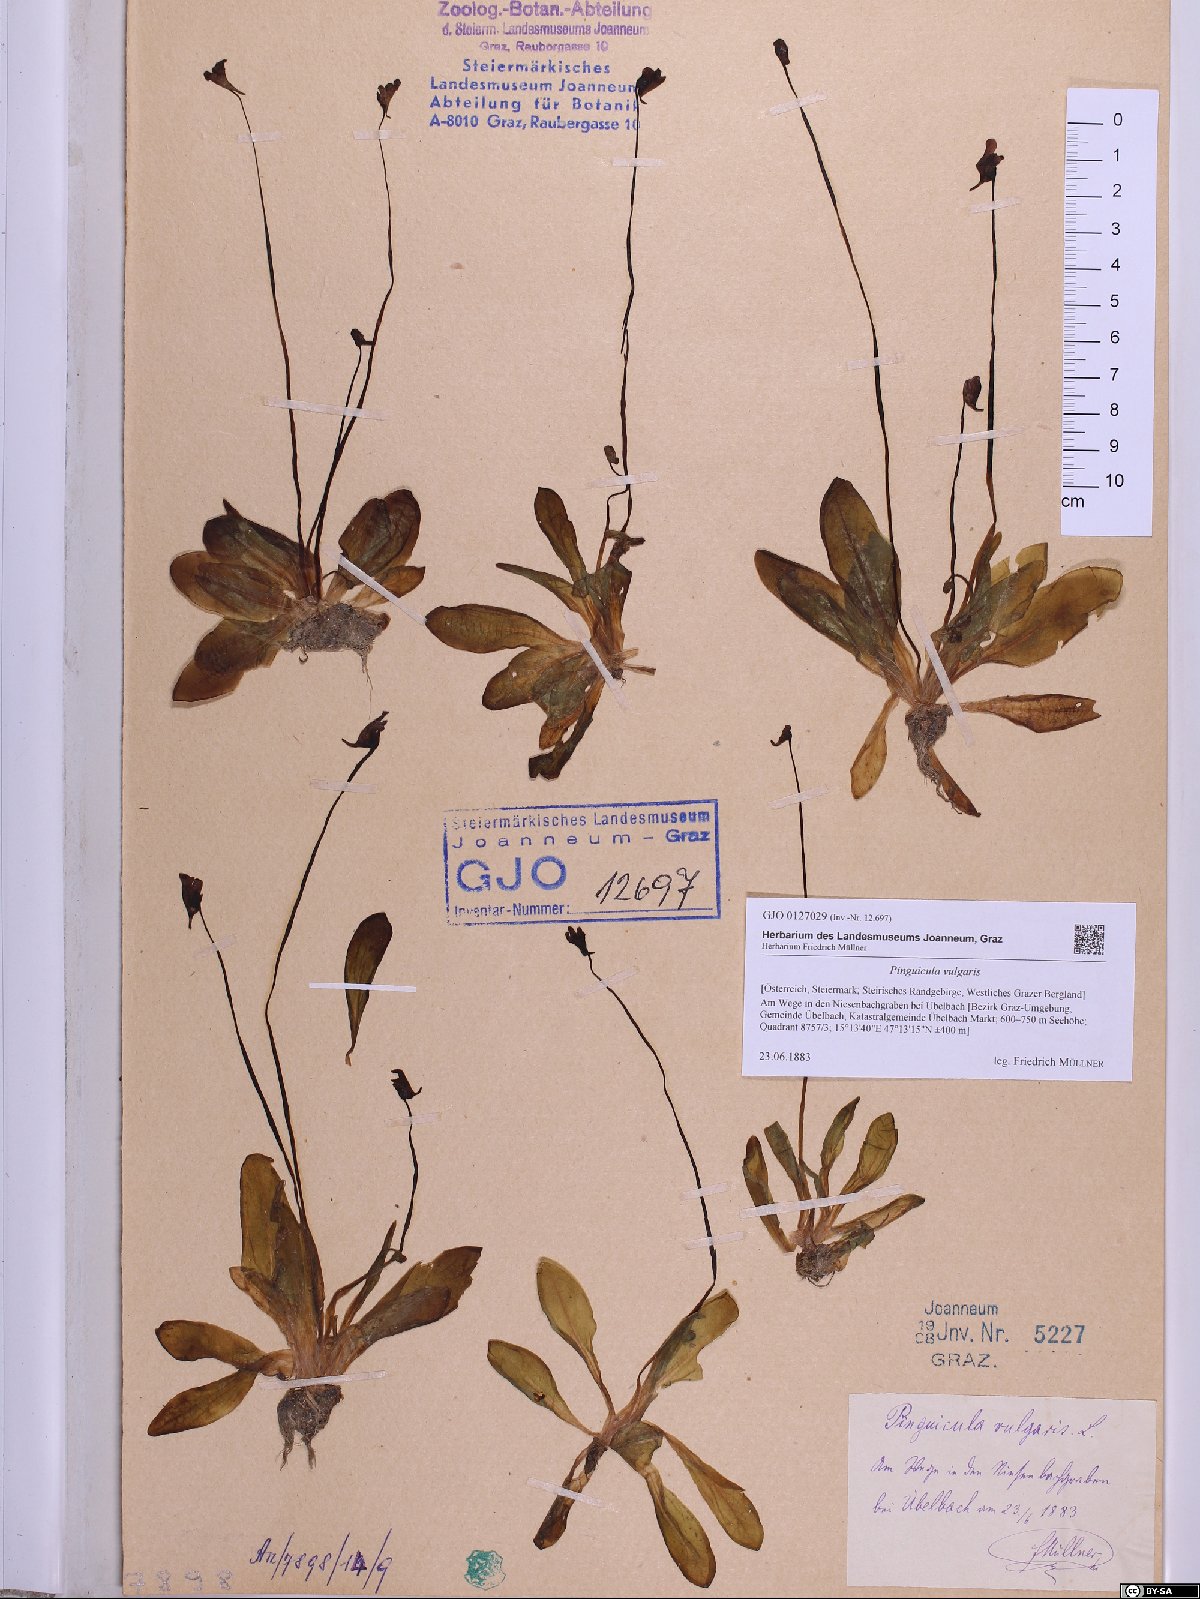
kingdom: Plantae
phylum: Tracheophyta
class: Magnoliopsida
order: Lamiales
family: Lentibulariaceae
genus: Pinguicula
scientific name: Pinguicula vulgaris
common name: Common butterwort
